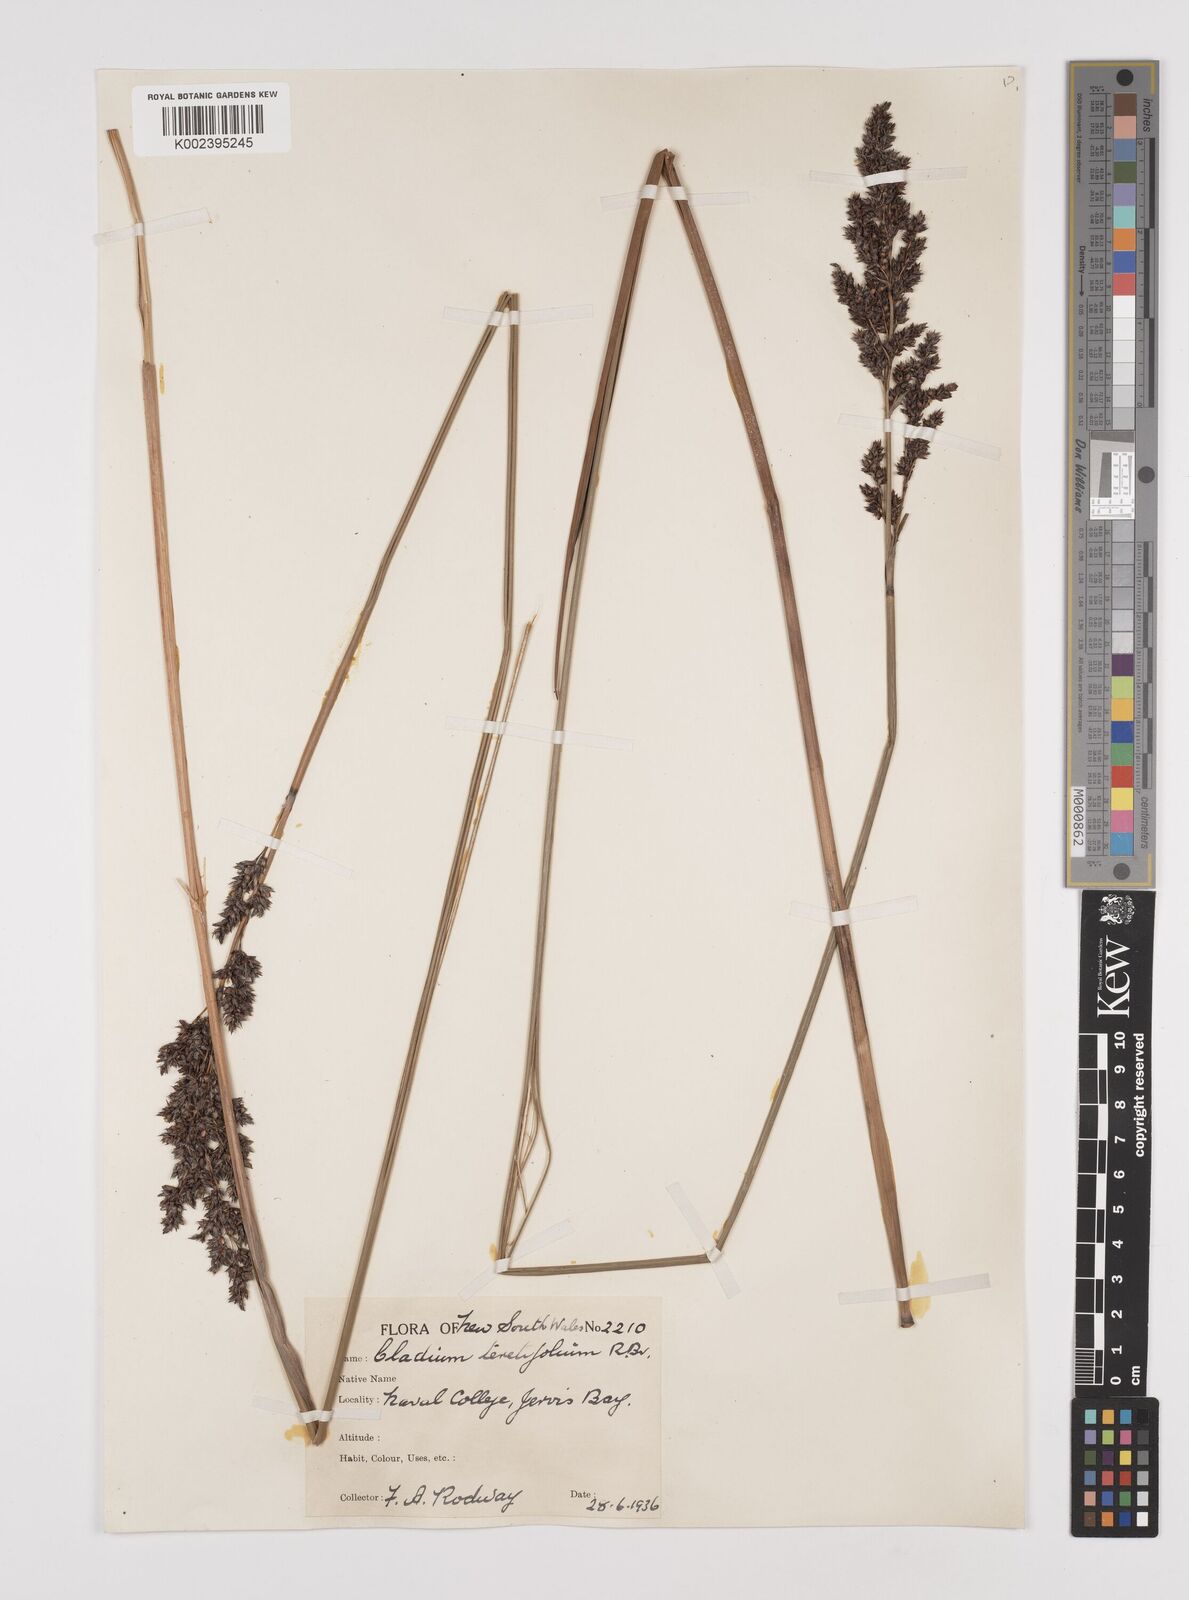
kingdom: Plantae
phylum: Tracheophyta
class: Liliopsida
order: Poales
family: Cyperaceae
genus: Machaerina
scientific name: Machaerina teretifolia
